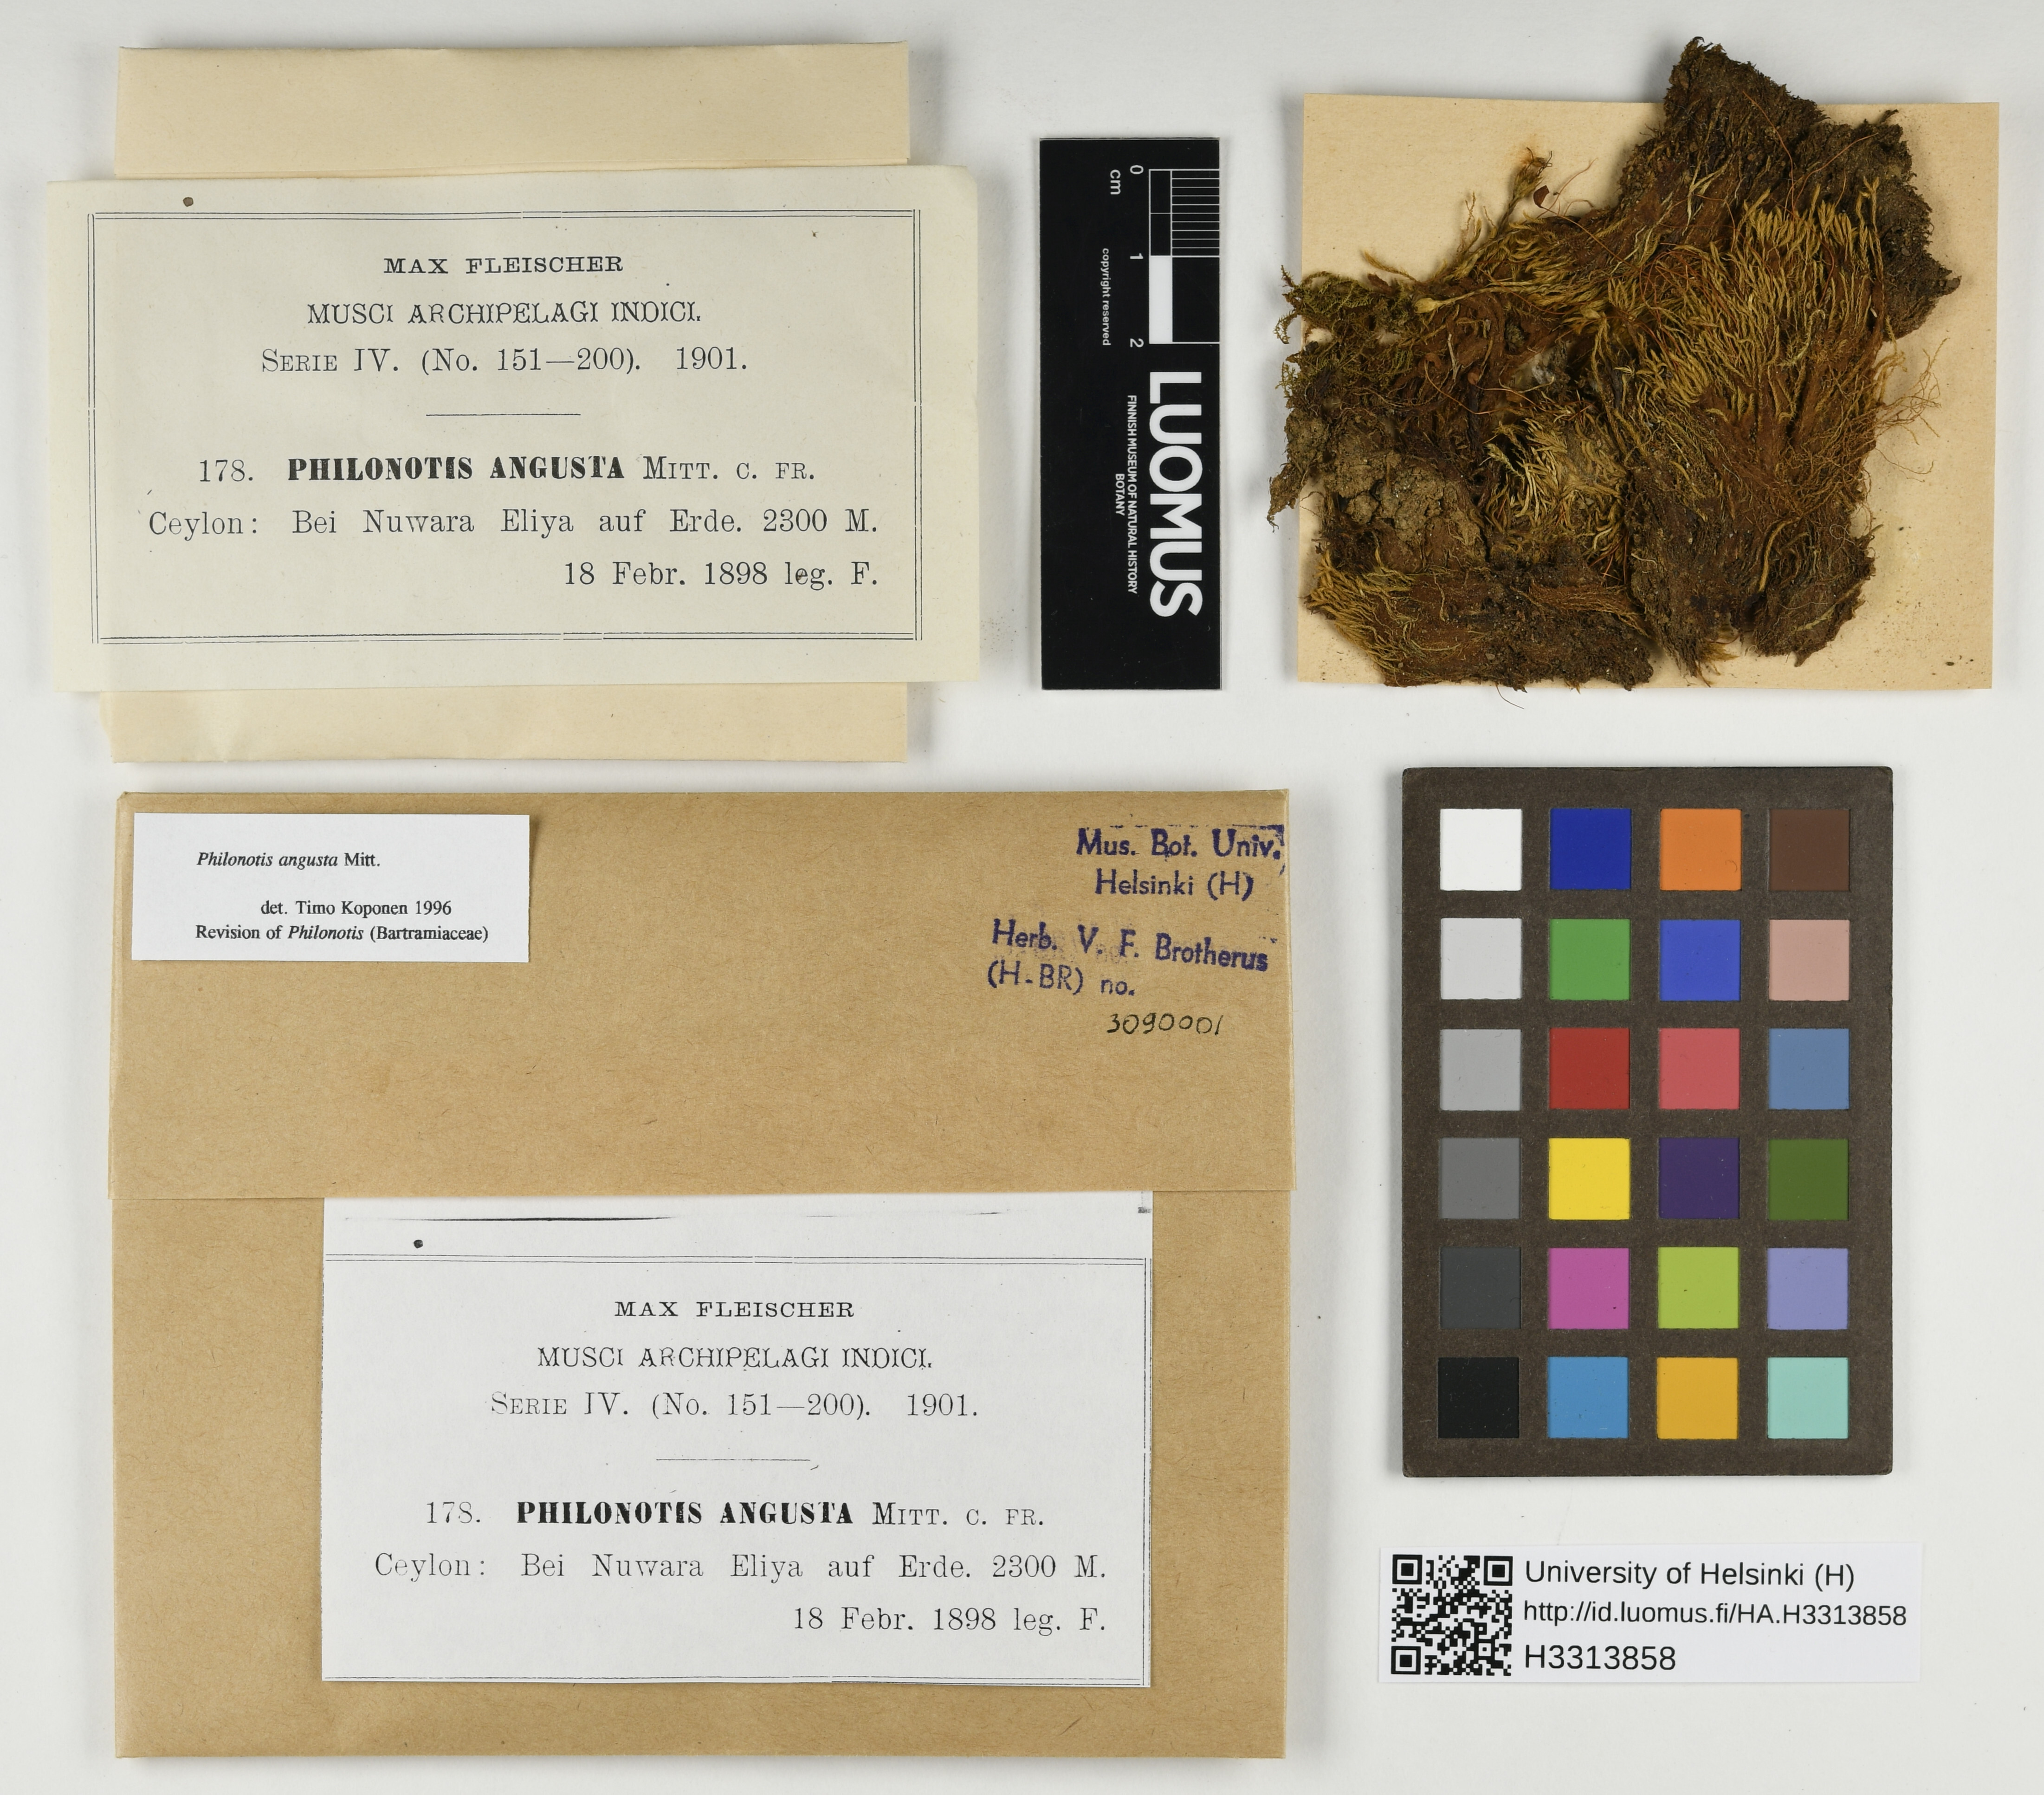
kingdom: Plantae
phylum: Bryophyta
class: Bryopsida
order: Bartramiales
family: Bartramiaceae
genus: Philonotis
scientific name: Philonotis angusta
